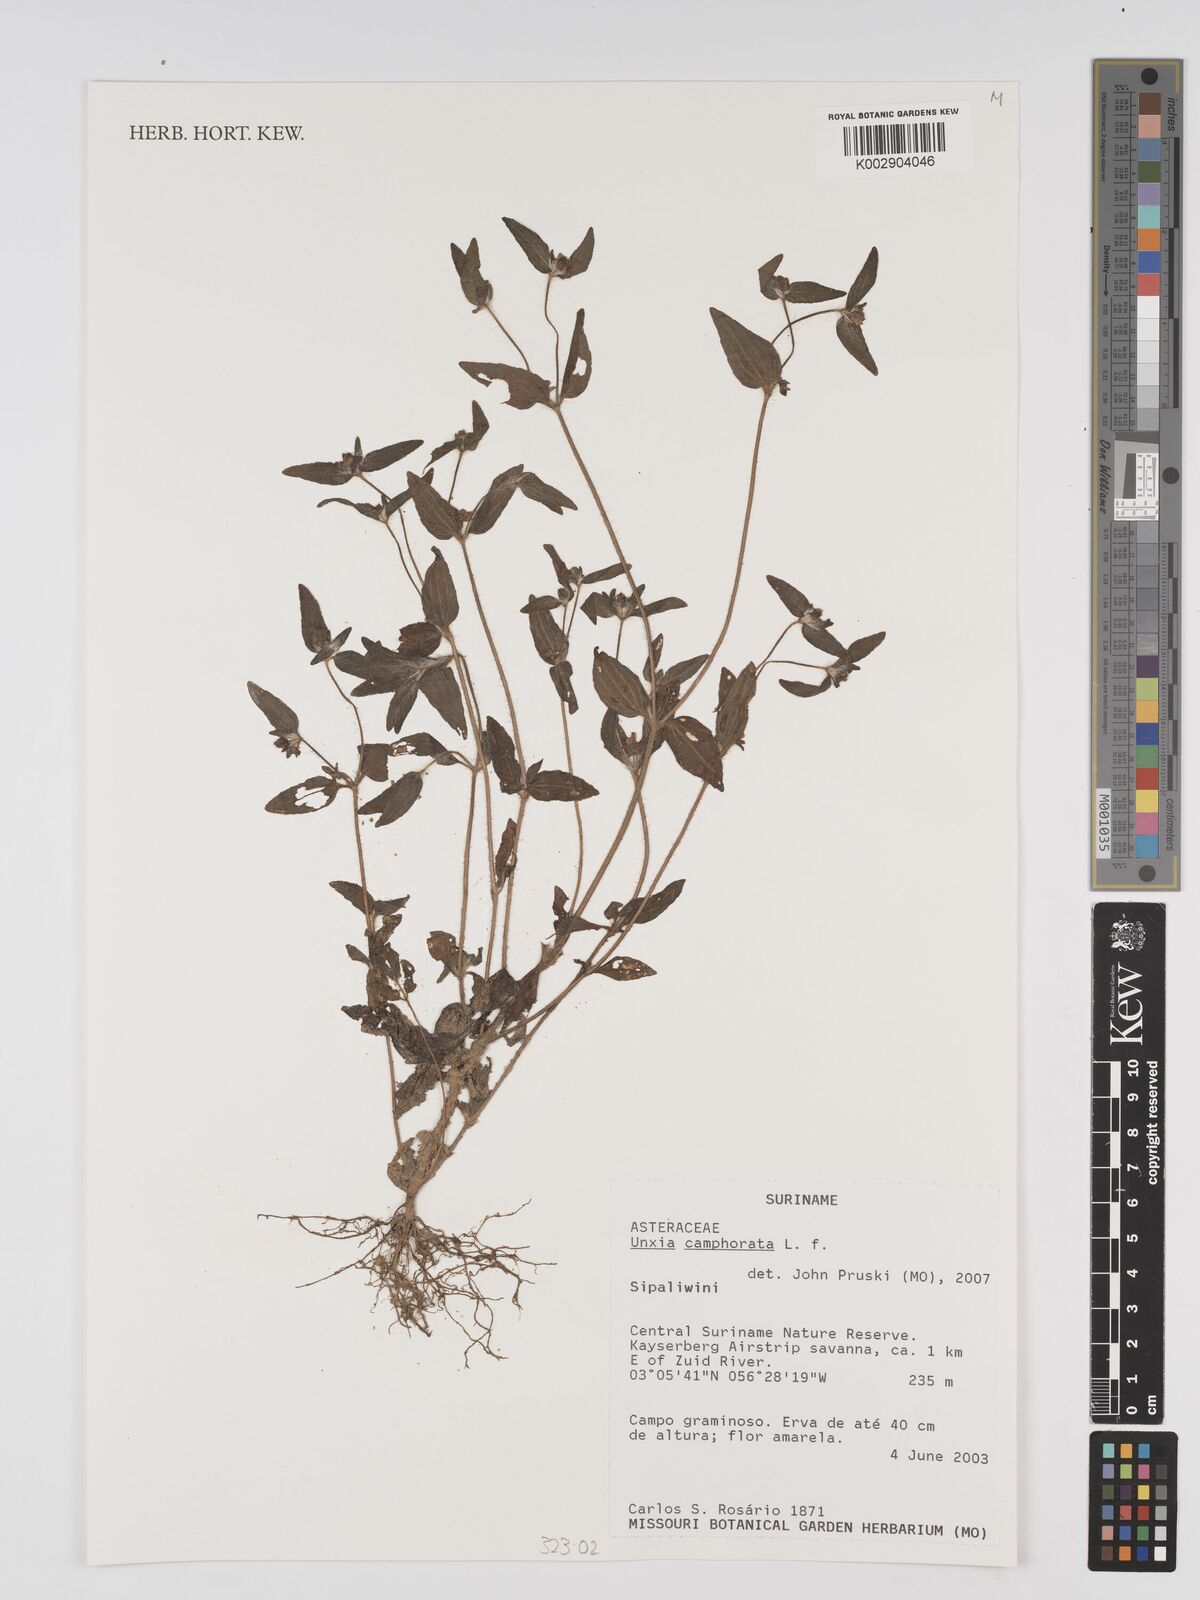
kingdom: Plantae
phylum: Tracheophyta
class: Magnoliopsida
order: Asterales
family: Asteraceae
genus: Unxia
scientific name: Unxia camphorata
